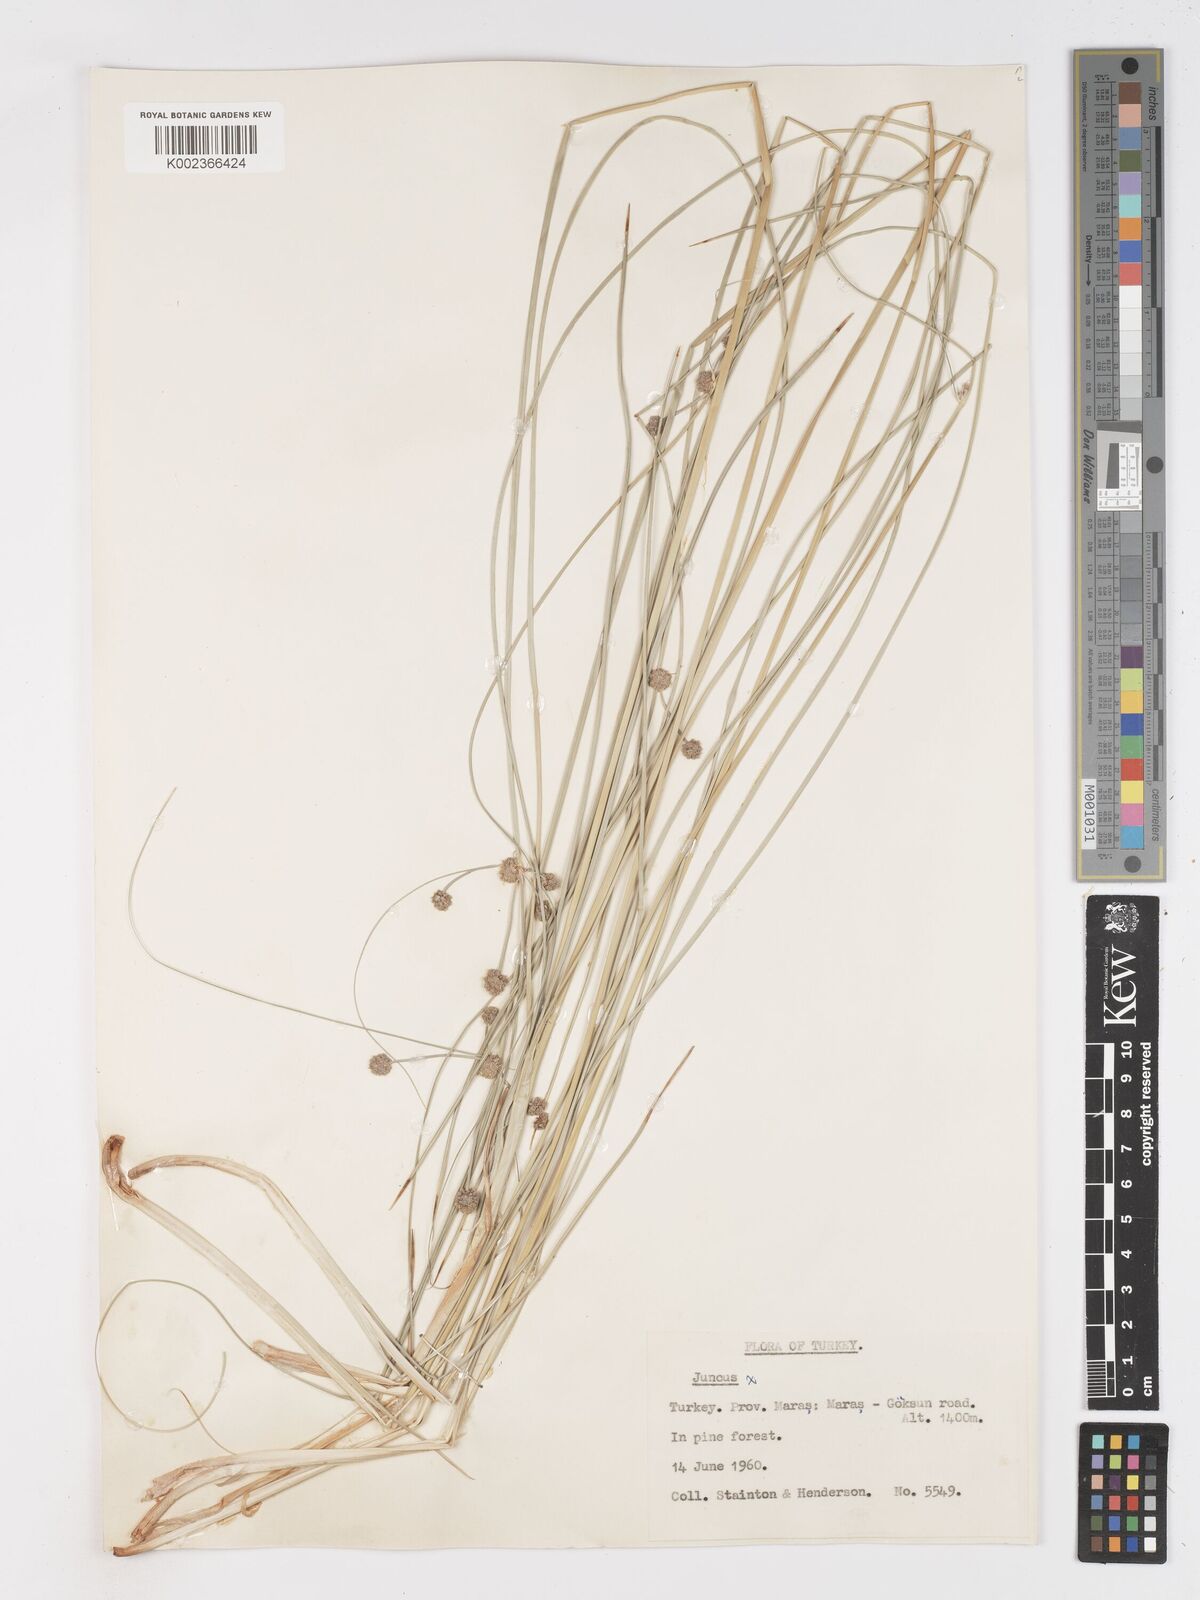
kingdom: Plantae
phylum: Tracheophyta
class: Liliopsida
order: Poales
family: Cyperaceae
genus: Scirpoides
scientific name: Scirpoides holoschoenus
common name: Round-headed club-rush
